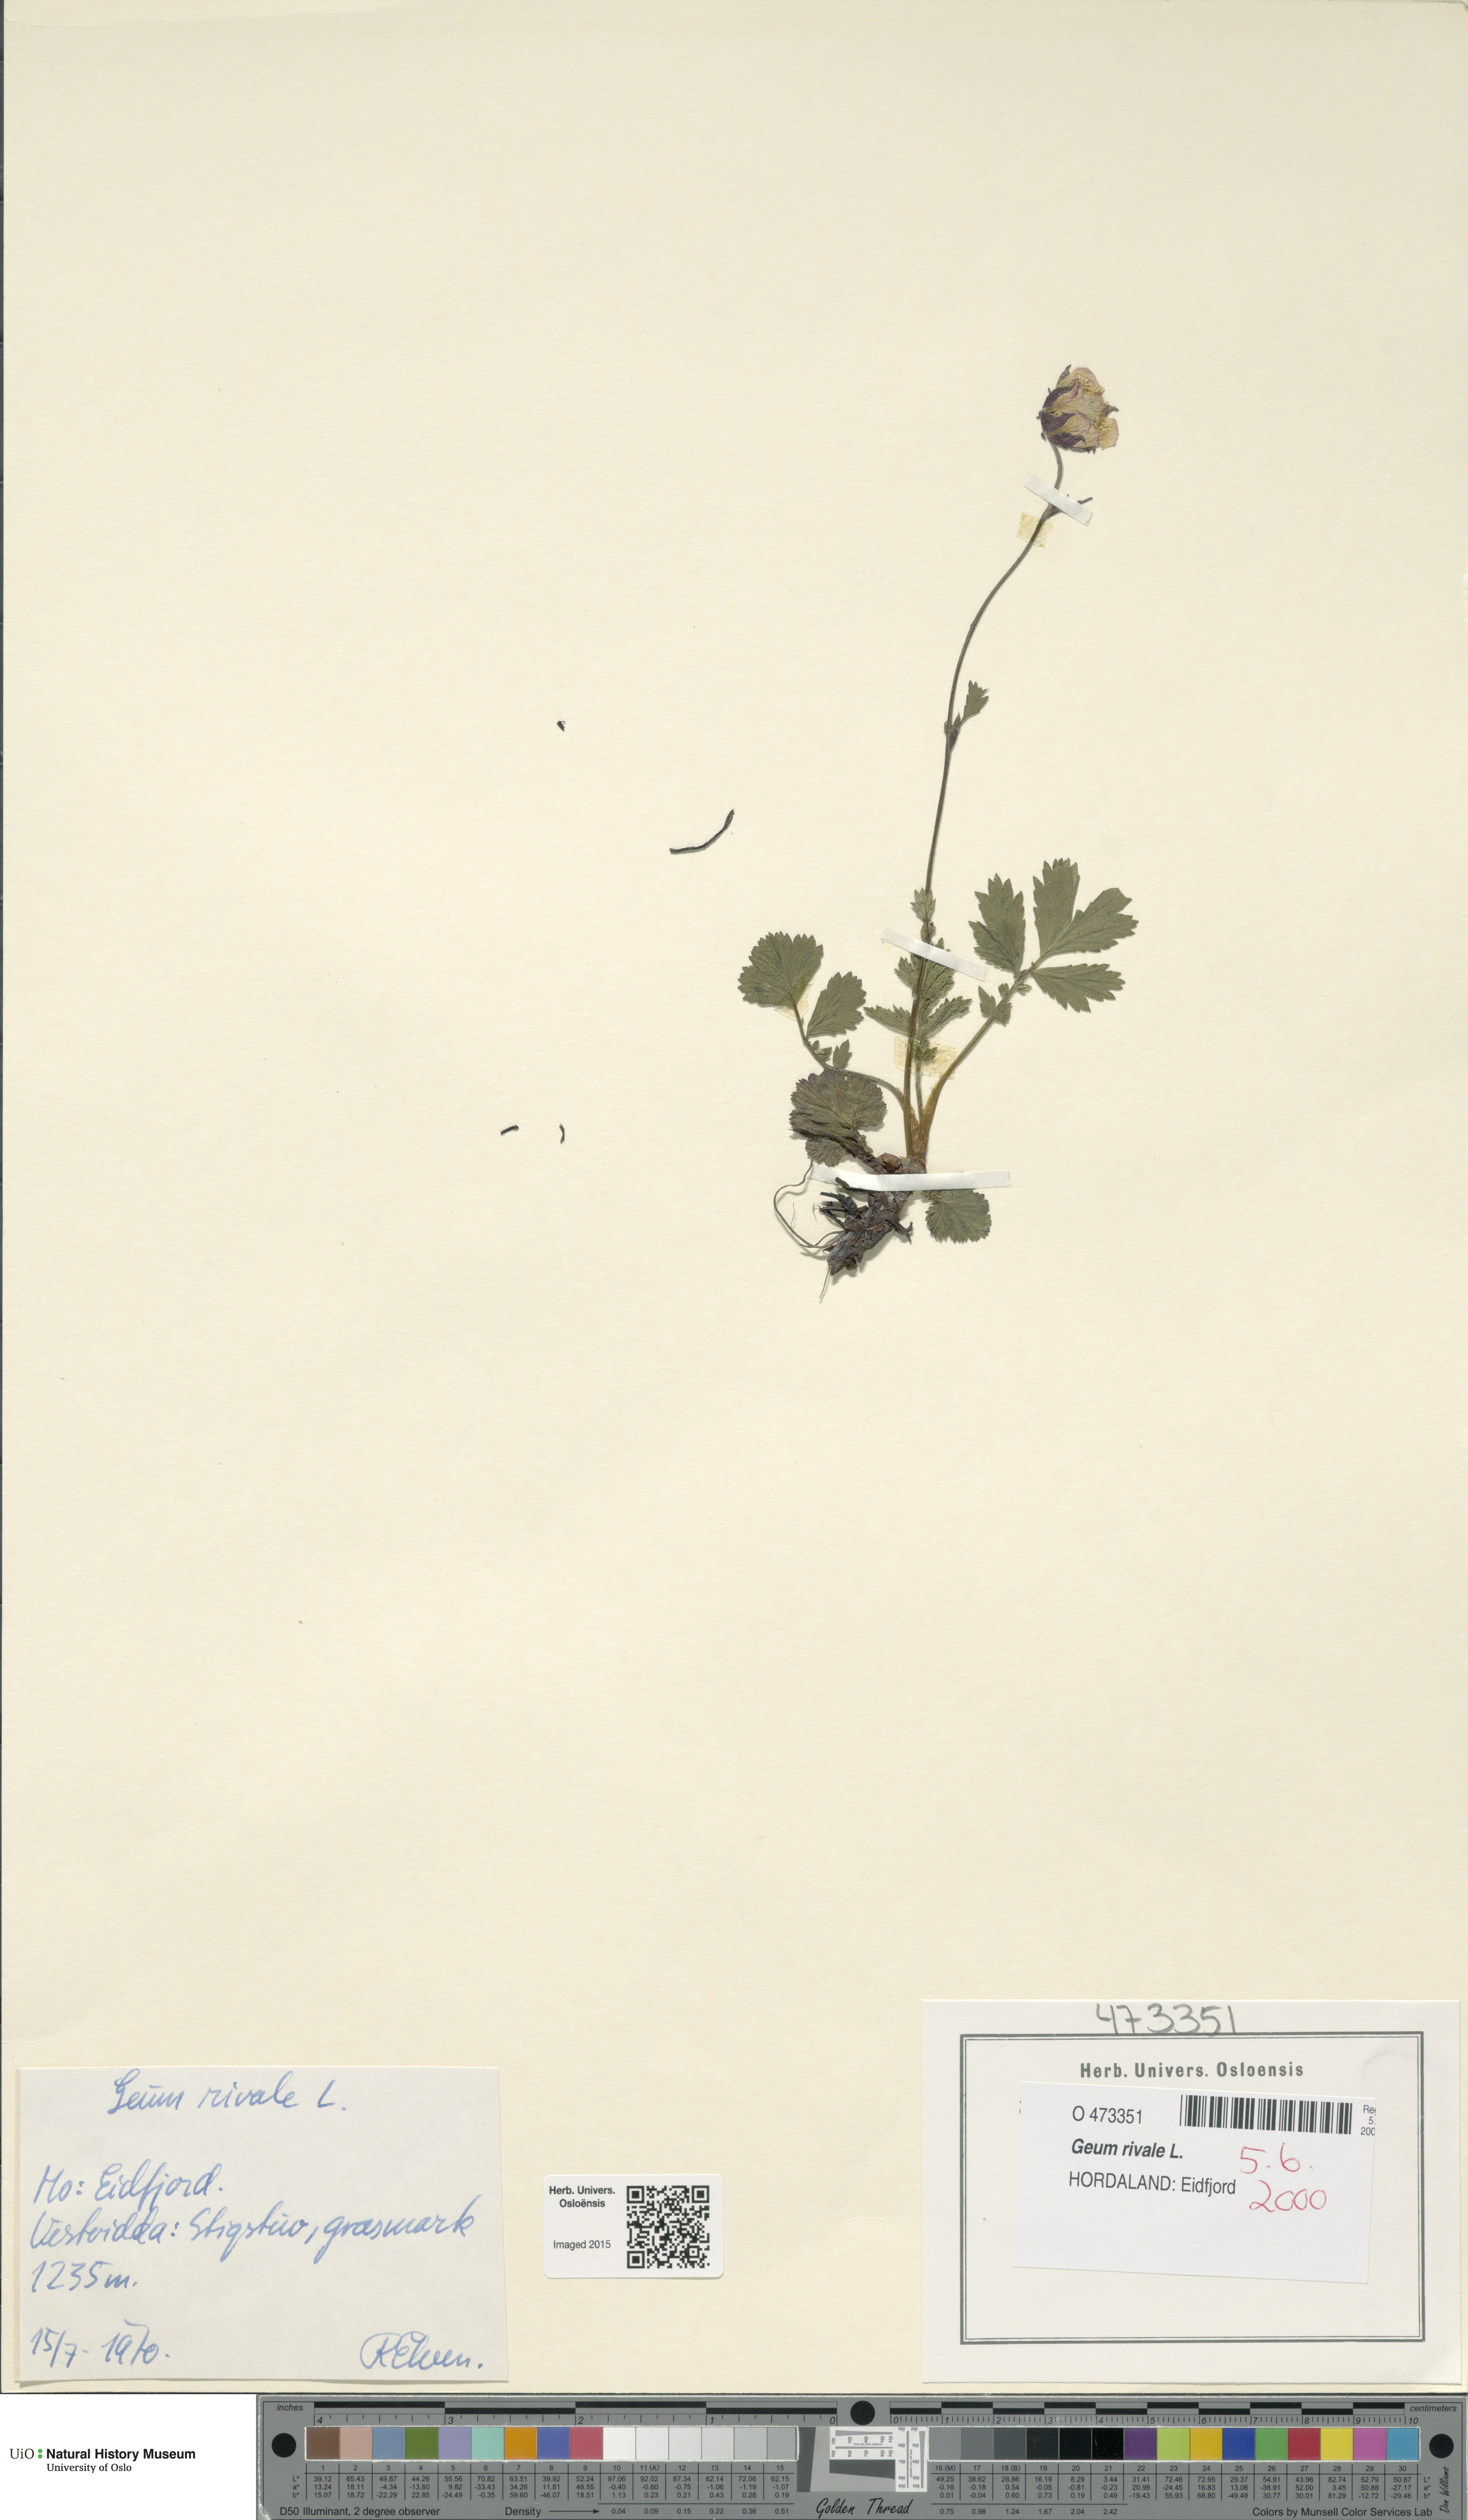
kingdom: Plantae
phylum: Tracheophyta
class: Magnoliopsida
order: Rosales
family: Rosaceae
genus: Geum
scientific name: Geum rivale
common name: Water avens
